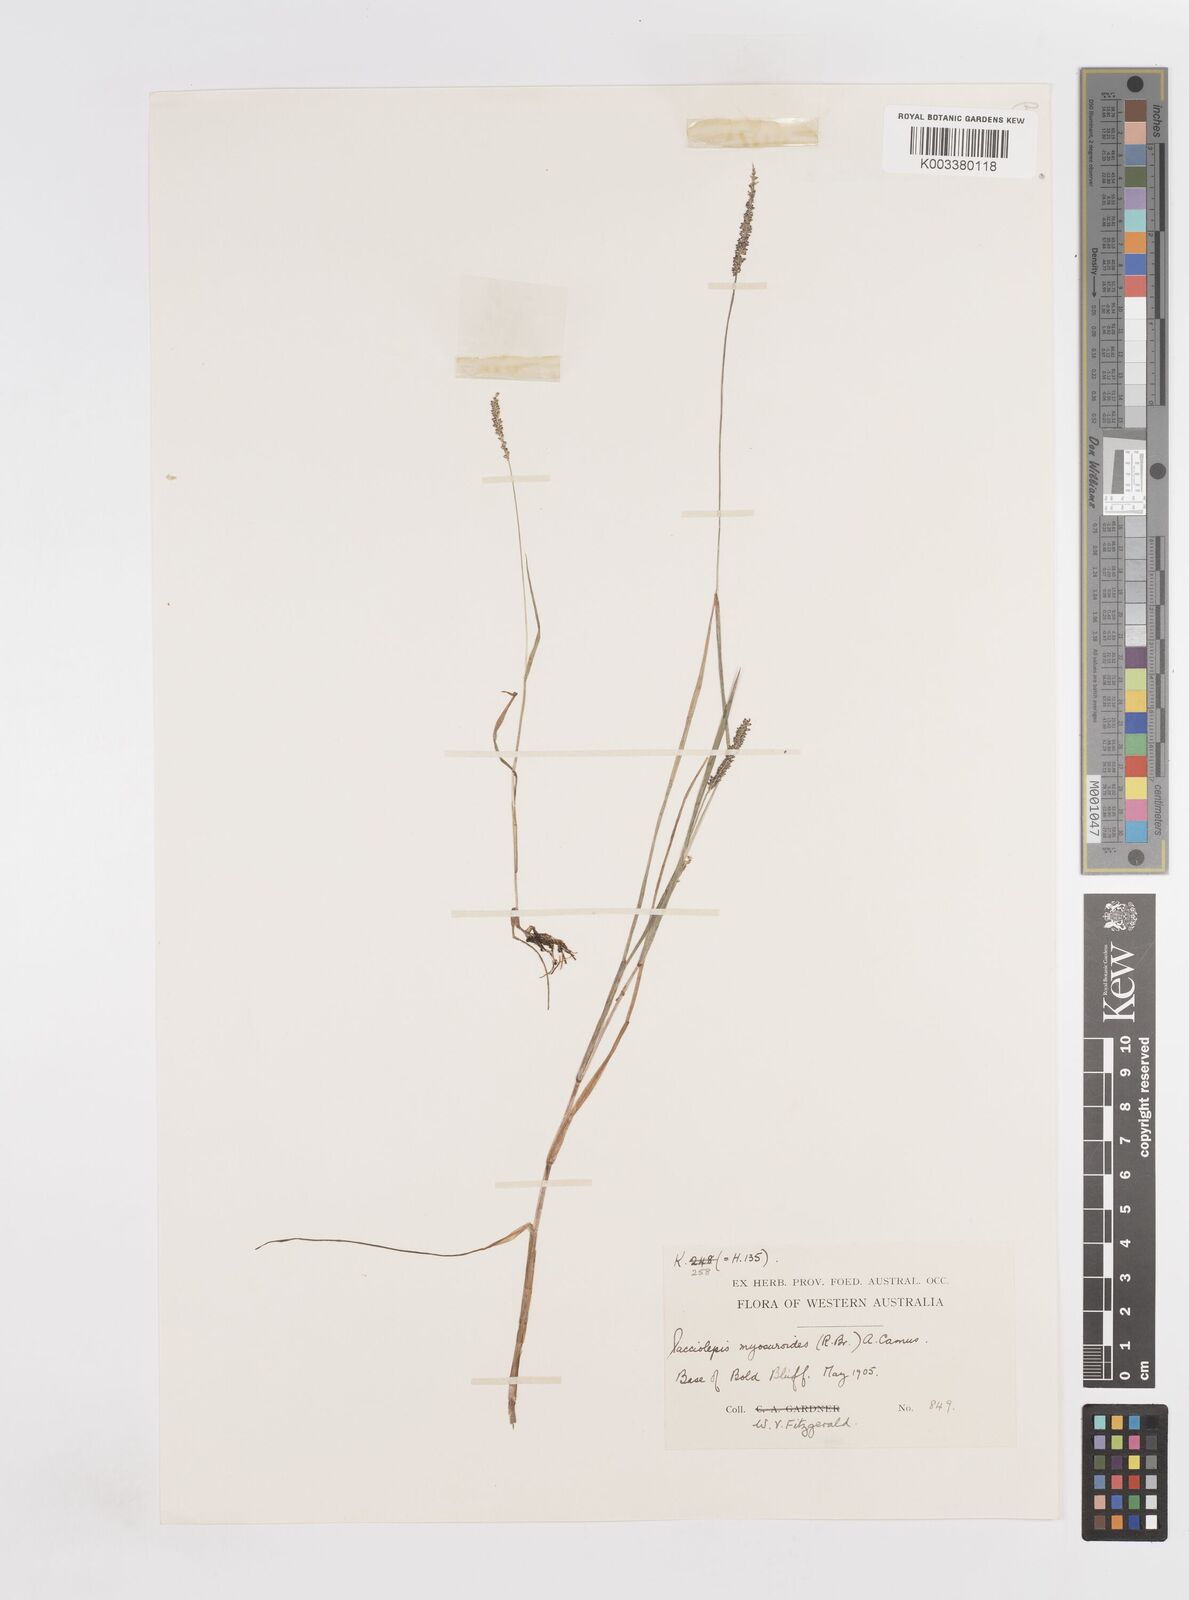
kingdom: Plantae
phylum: Tracheophyta
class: Liliopsida
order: Poales
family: Poaceae
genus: Sacciolepis
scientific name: Sacciolepis myosuroides
